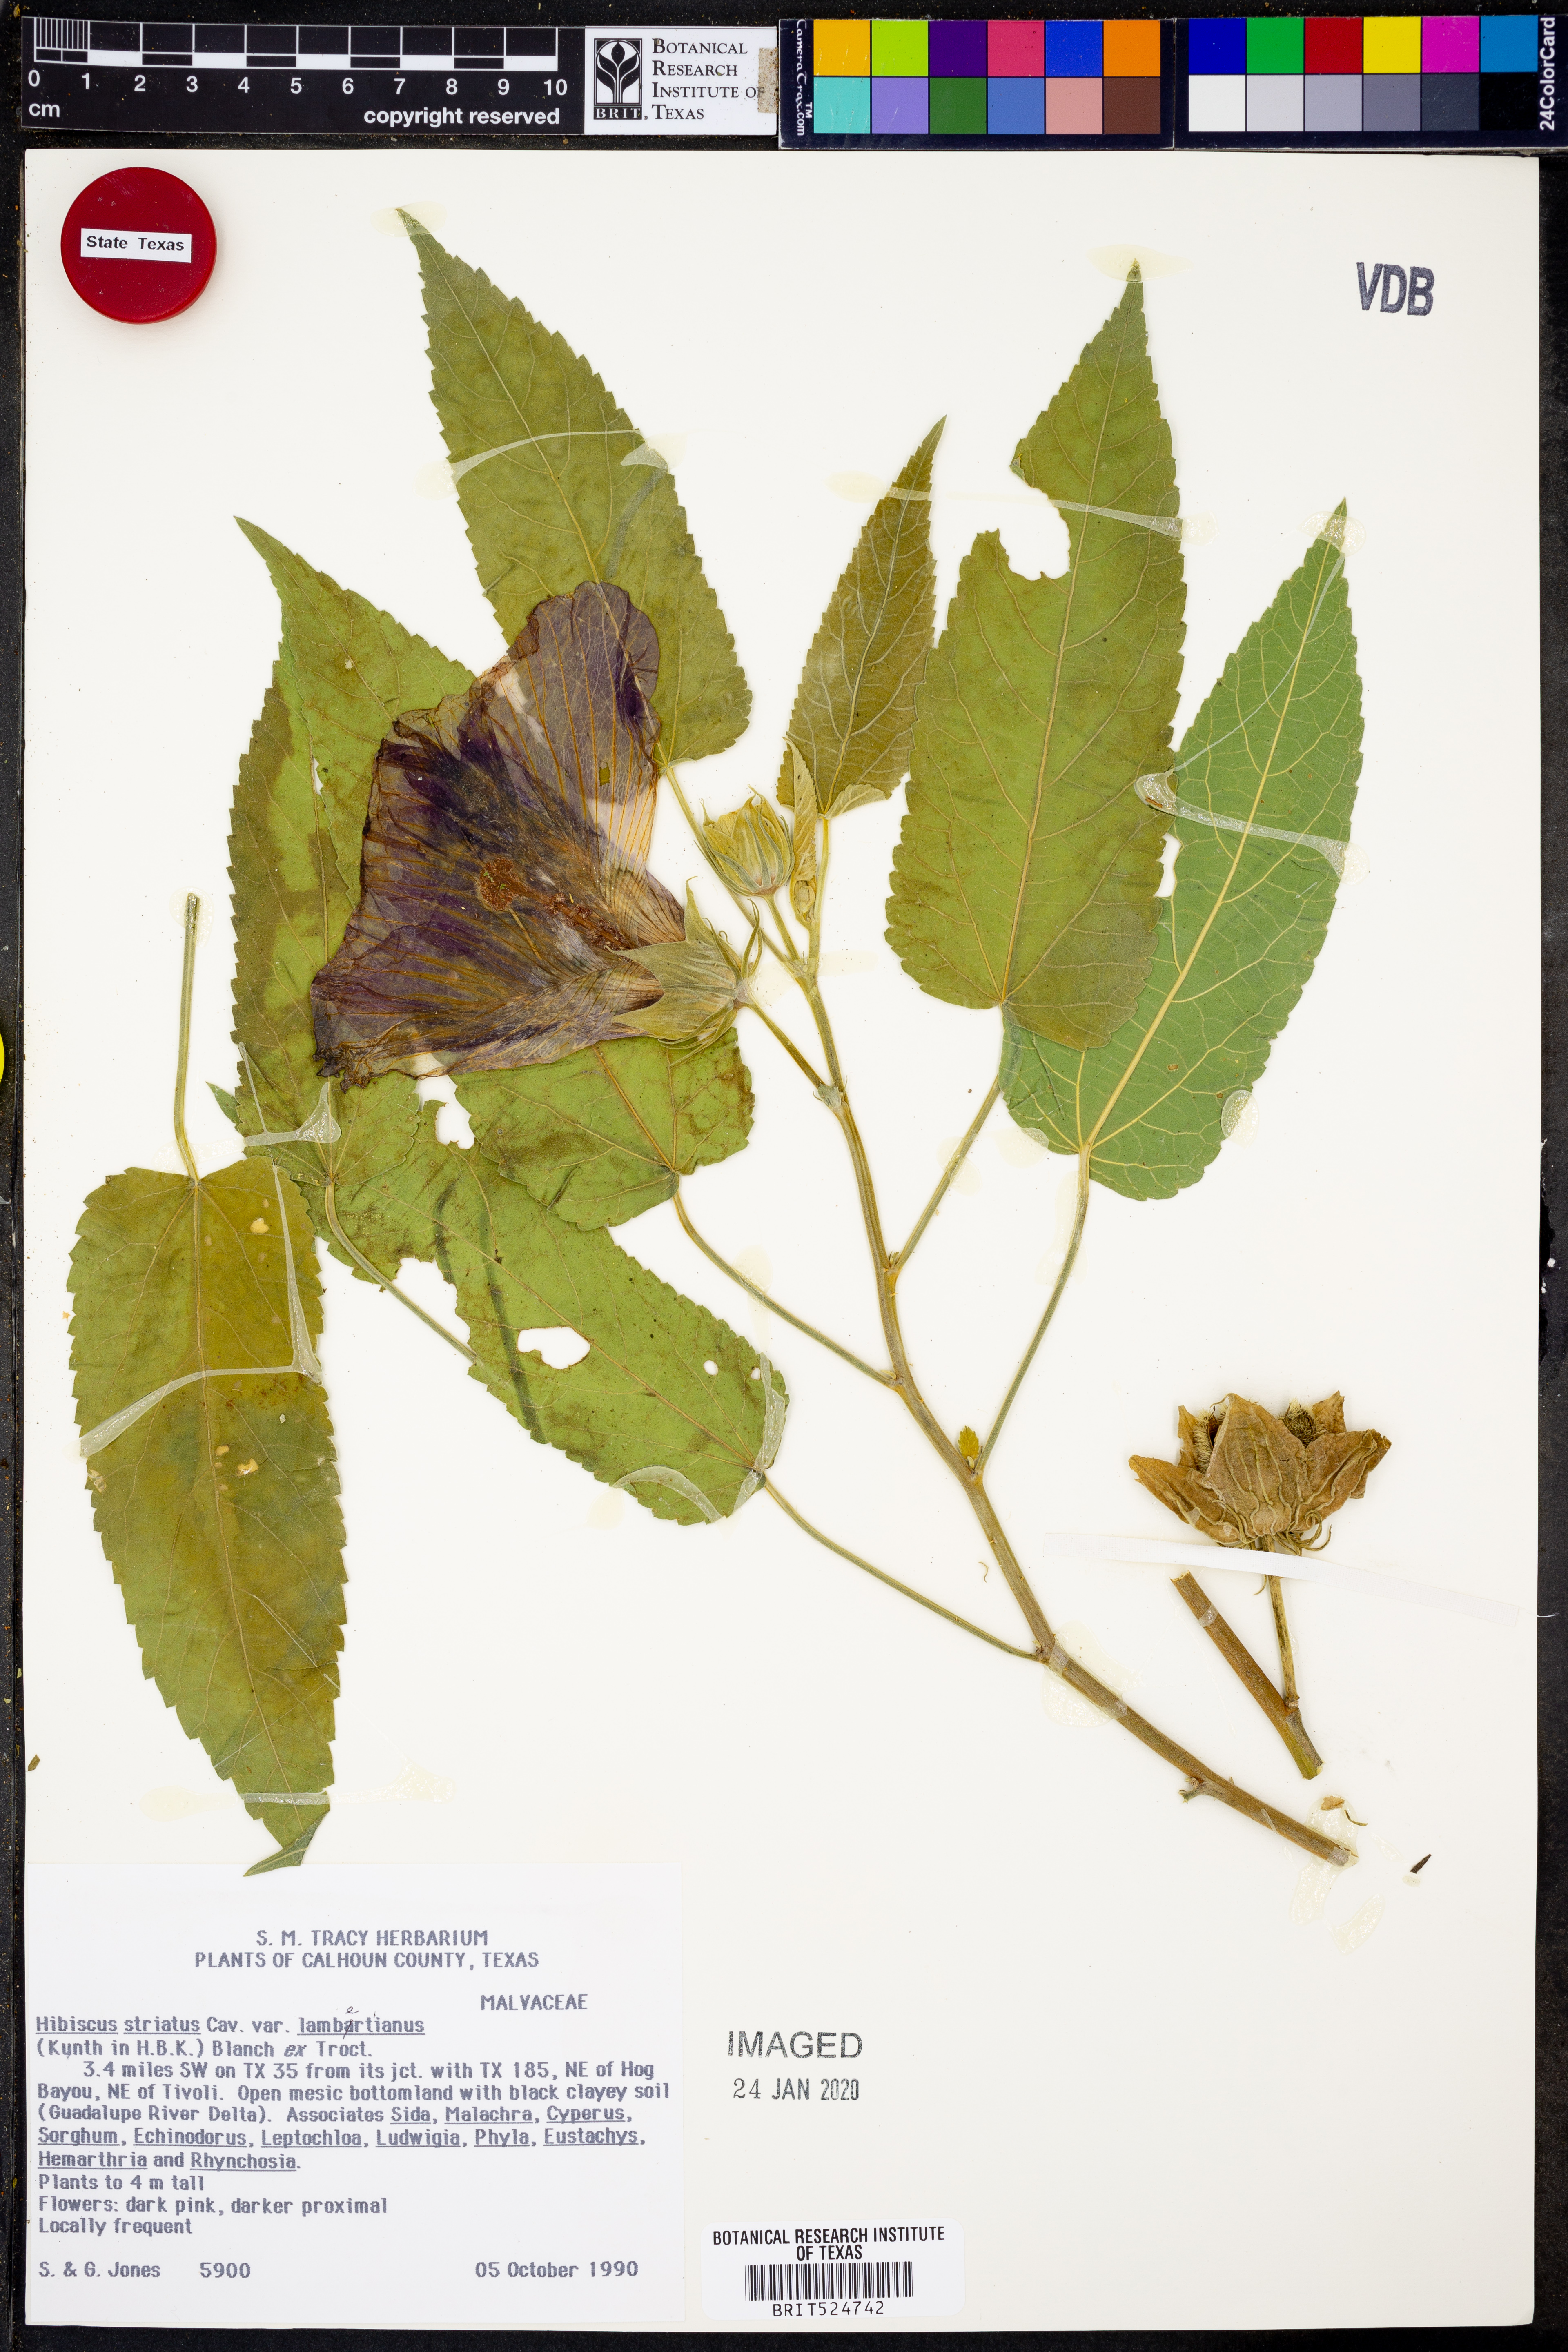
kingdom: Plantae
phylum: Tracheophyta
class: Magnoliopsida
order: Malvales
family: Malvaceae
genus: Hibiscus
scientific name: Hibiscus striatus
